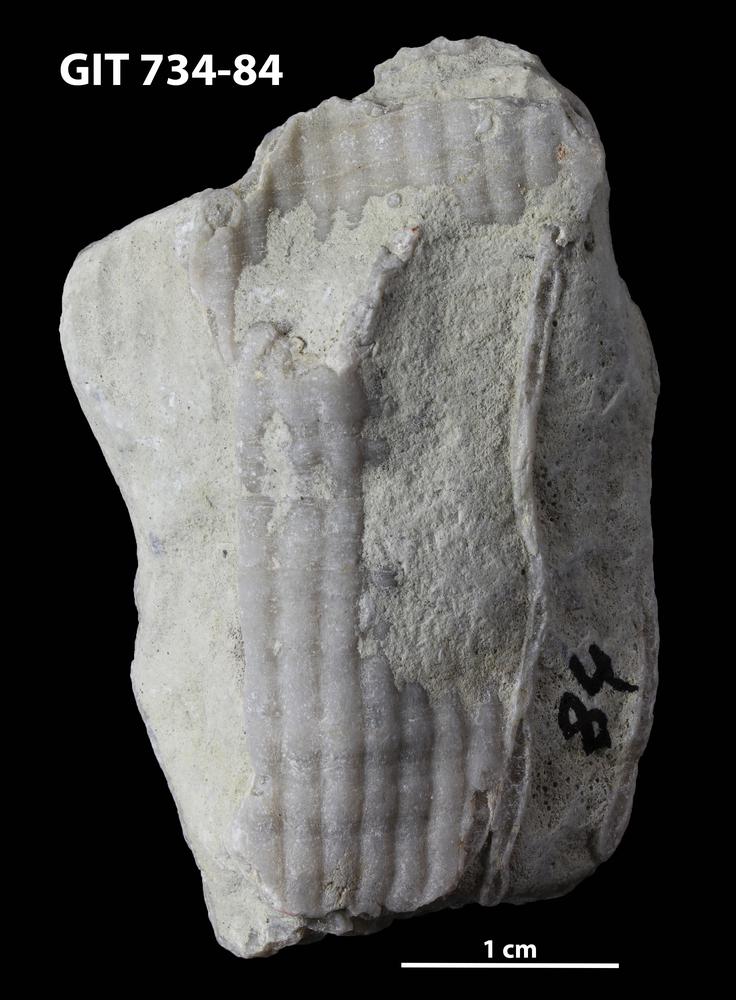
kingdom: Animalia
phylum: Cnidaria
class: Anthozoa
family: Cateniporidae
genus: Catenipora
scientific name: Catenipora
